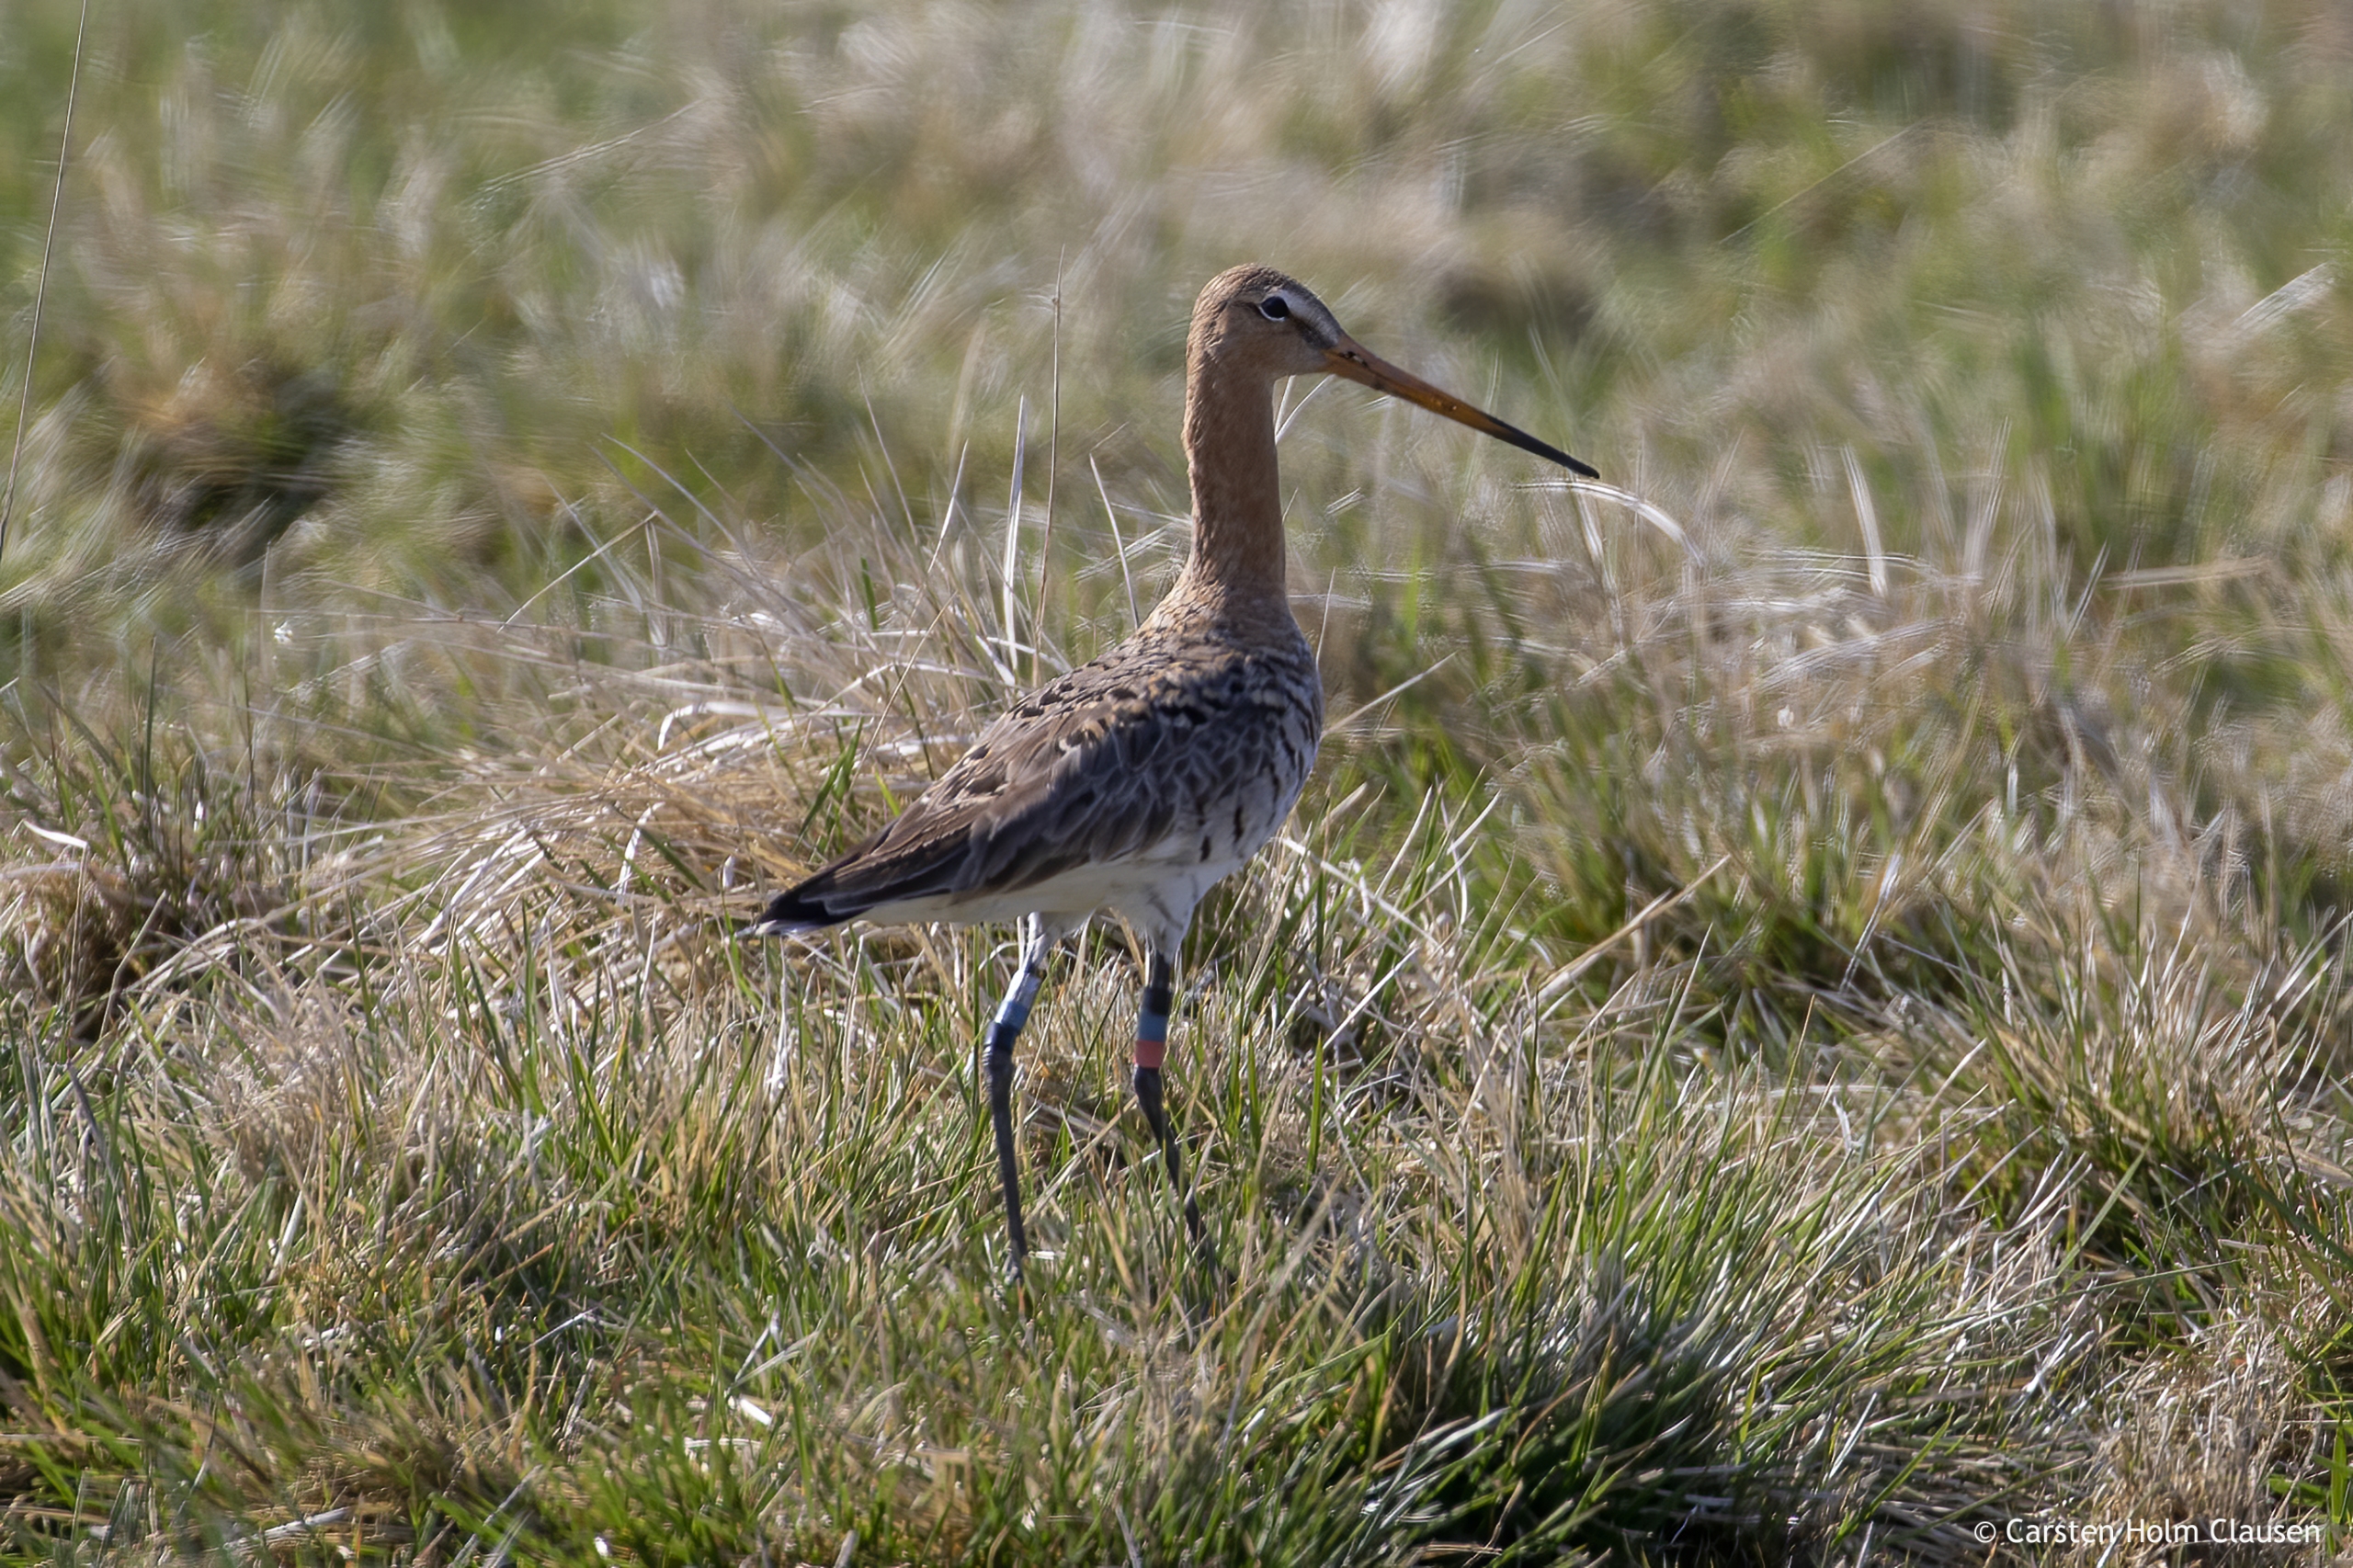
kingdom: Animalia
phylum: Chordata
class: Aves
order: Charadriiformes
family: Scolopacidae
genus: Limosa
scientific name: Limosa limosa
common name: Stor kobbersneppe
